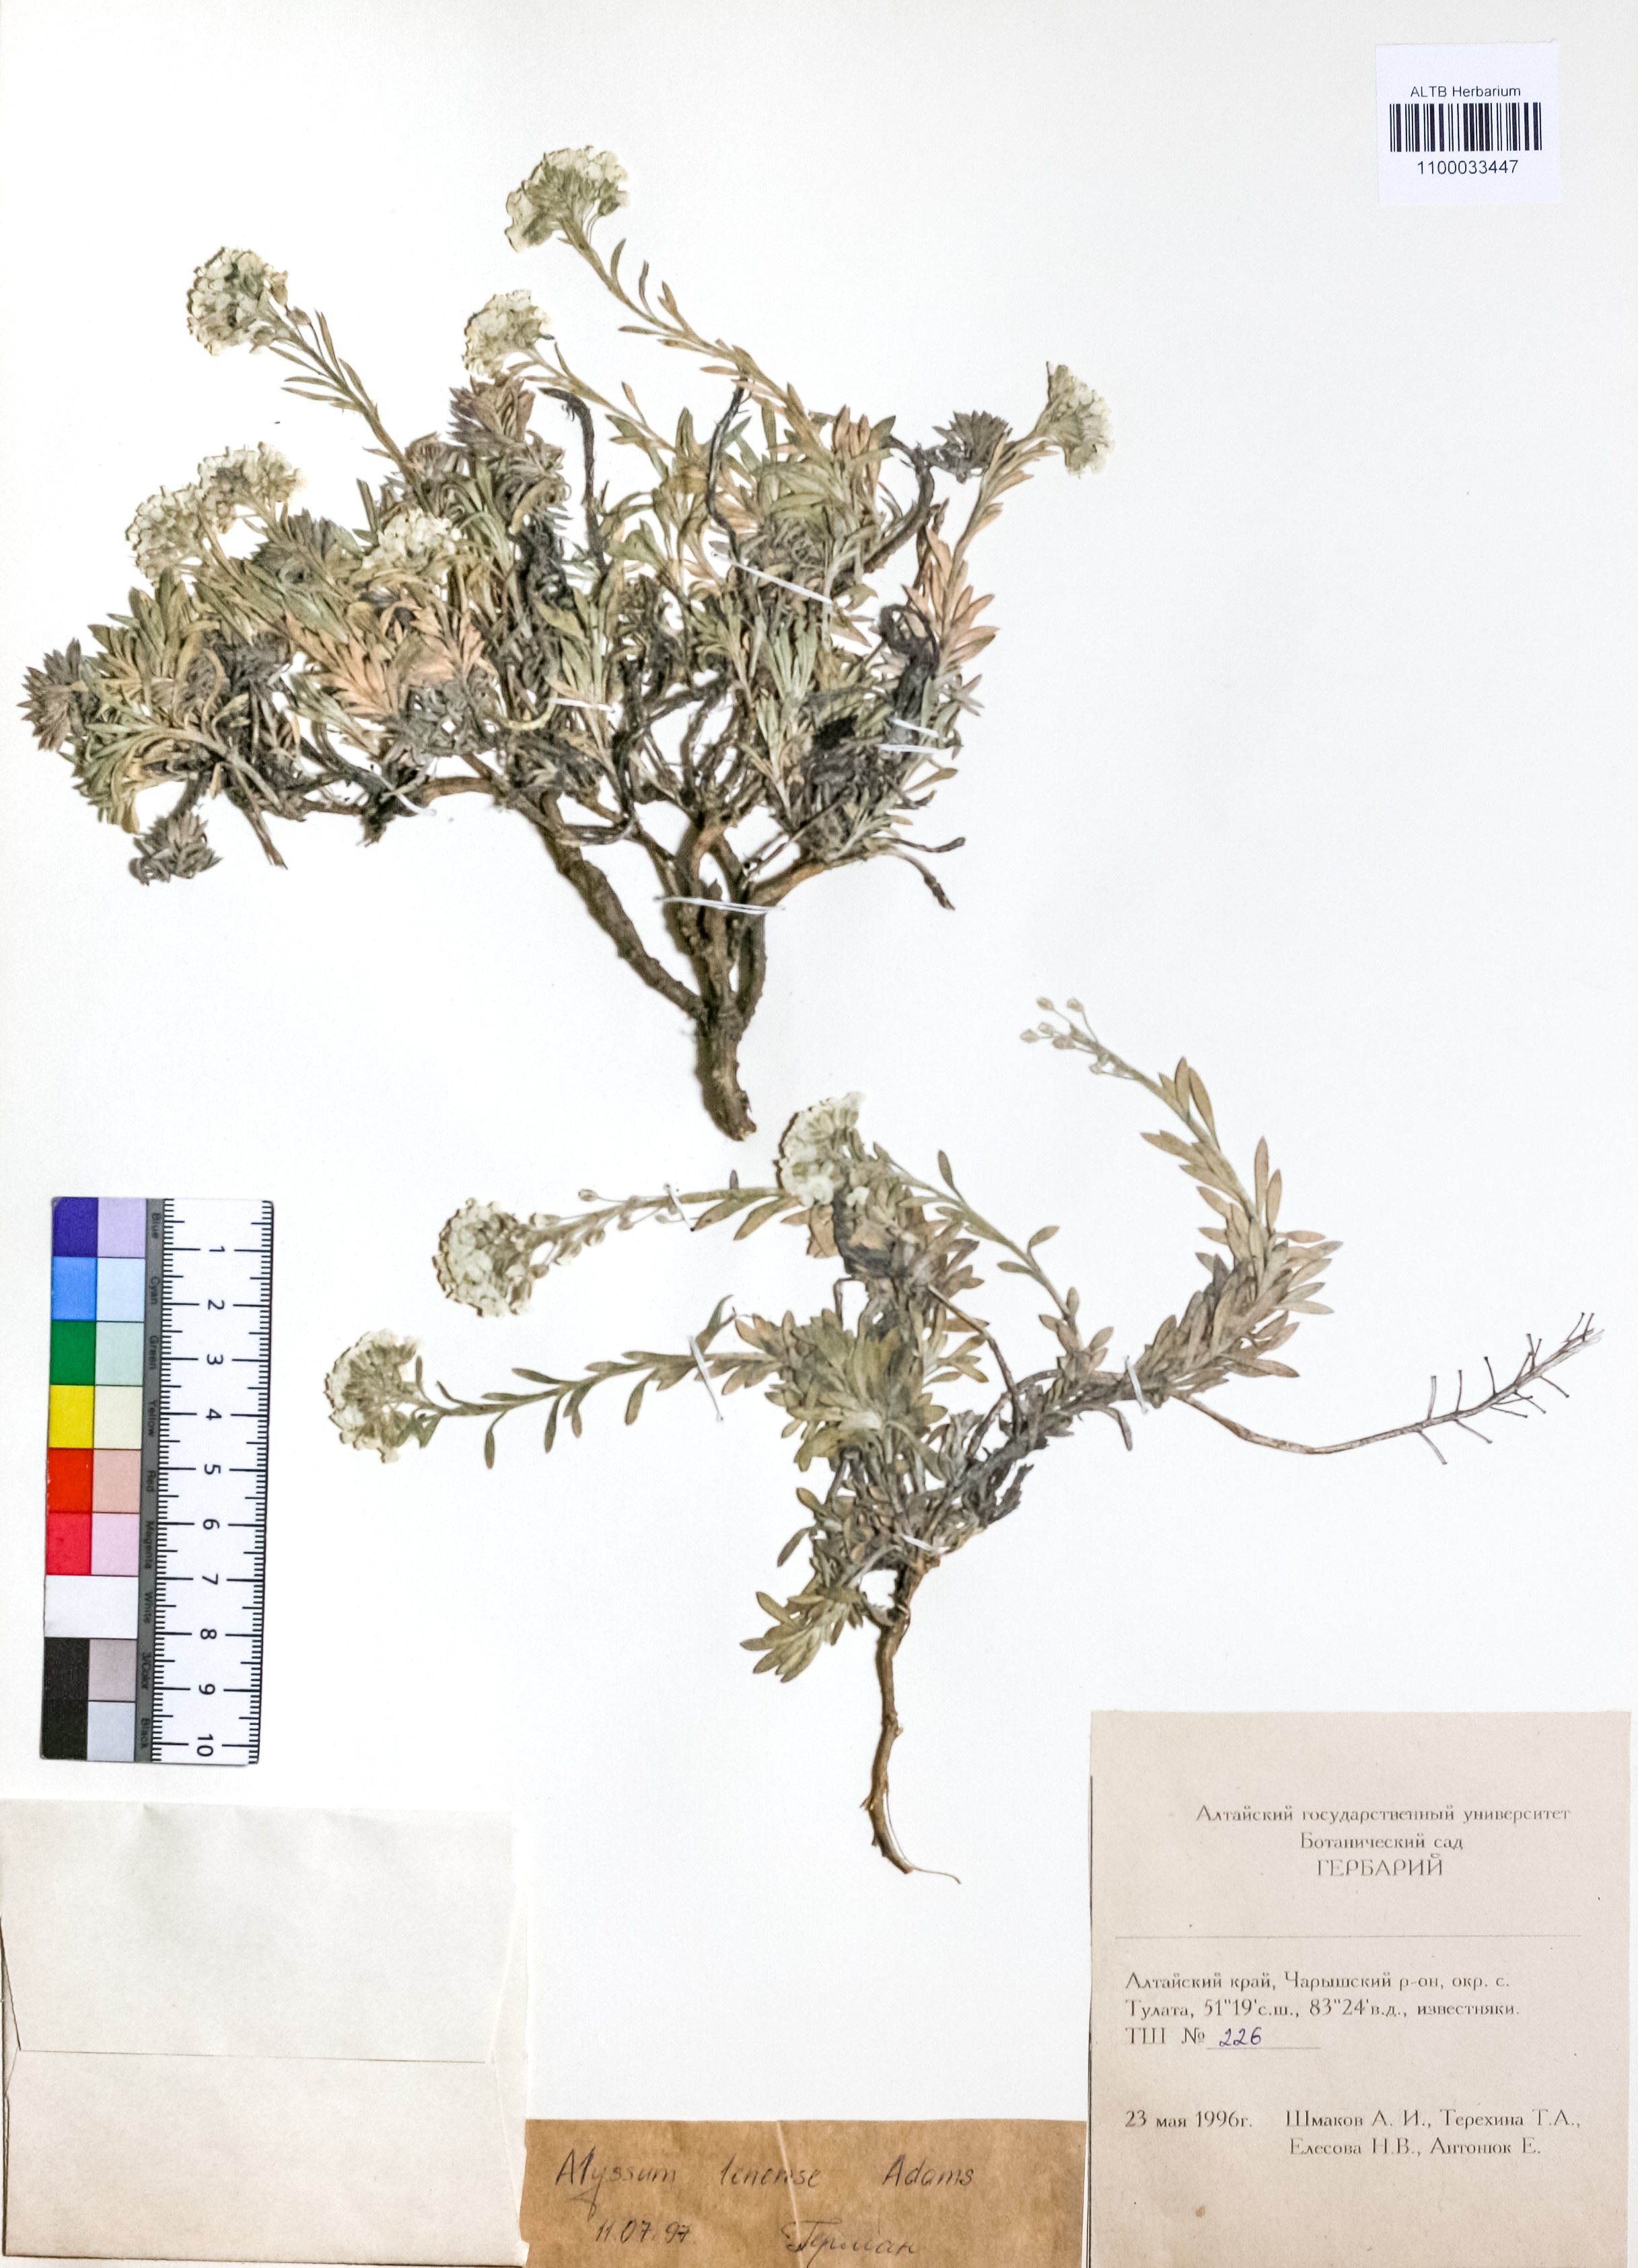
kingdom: Plantae
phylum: Tracheophyta
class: Magnoliopsida
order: Brassicales
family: Brassicaceae
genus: Alyssum
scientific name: Alyssum lenense
